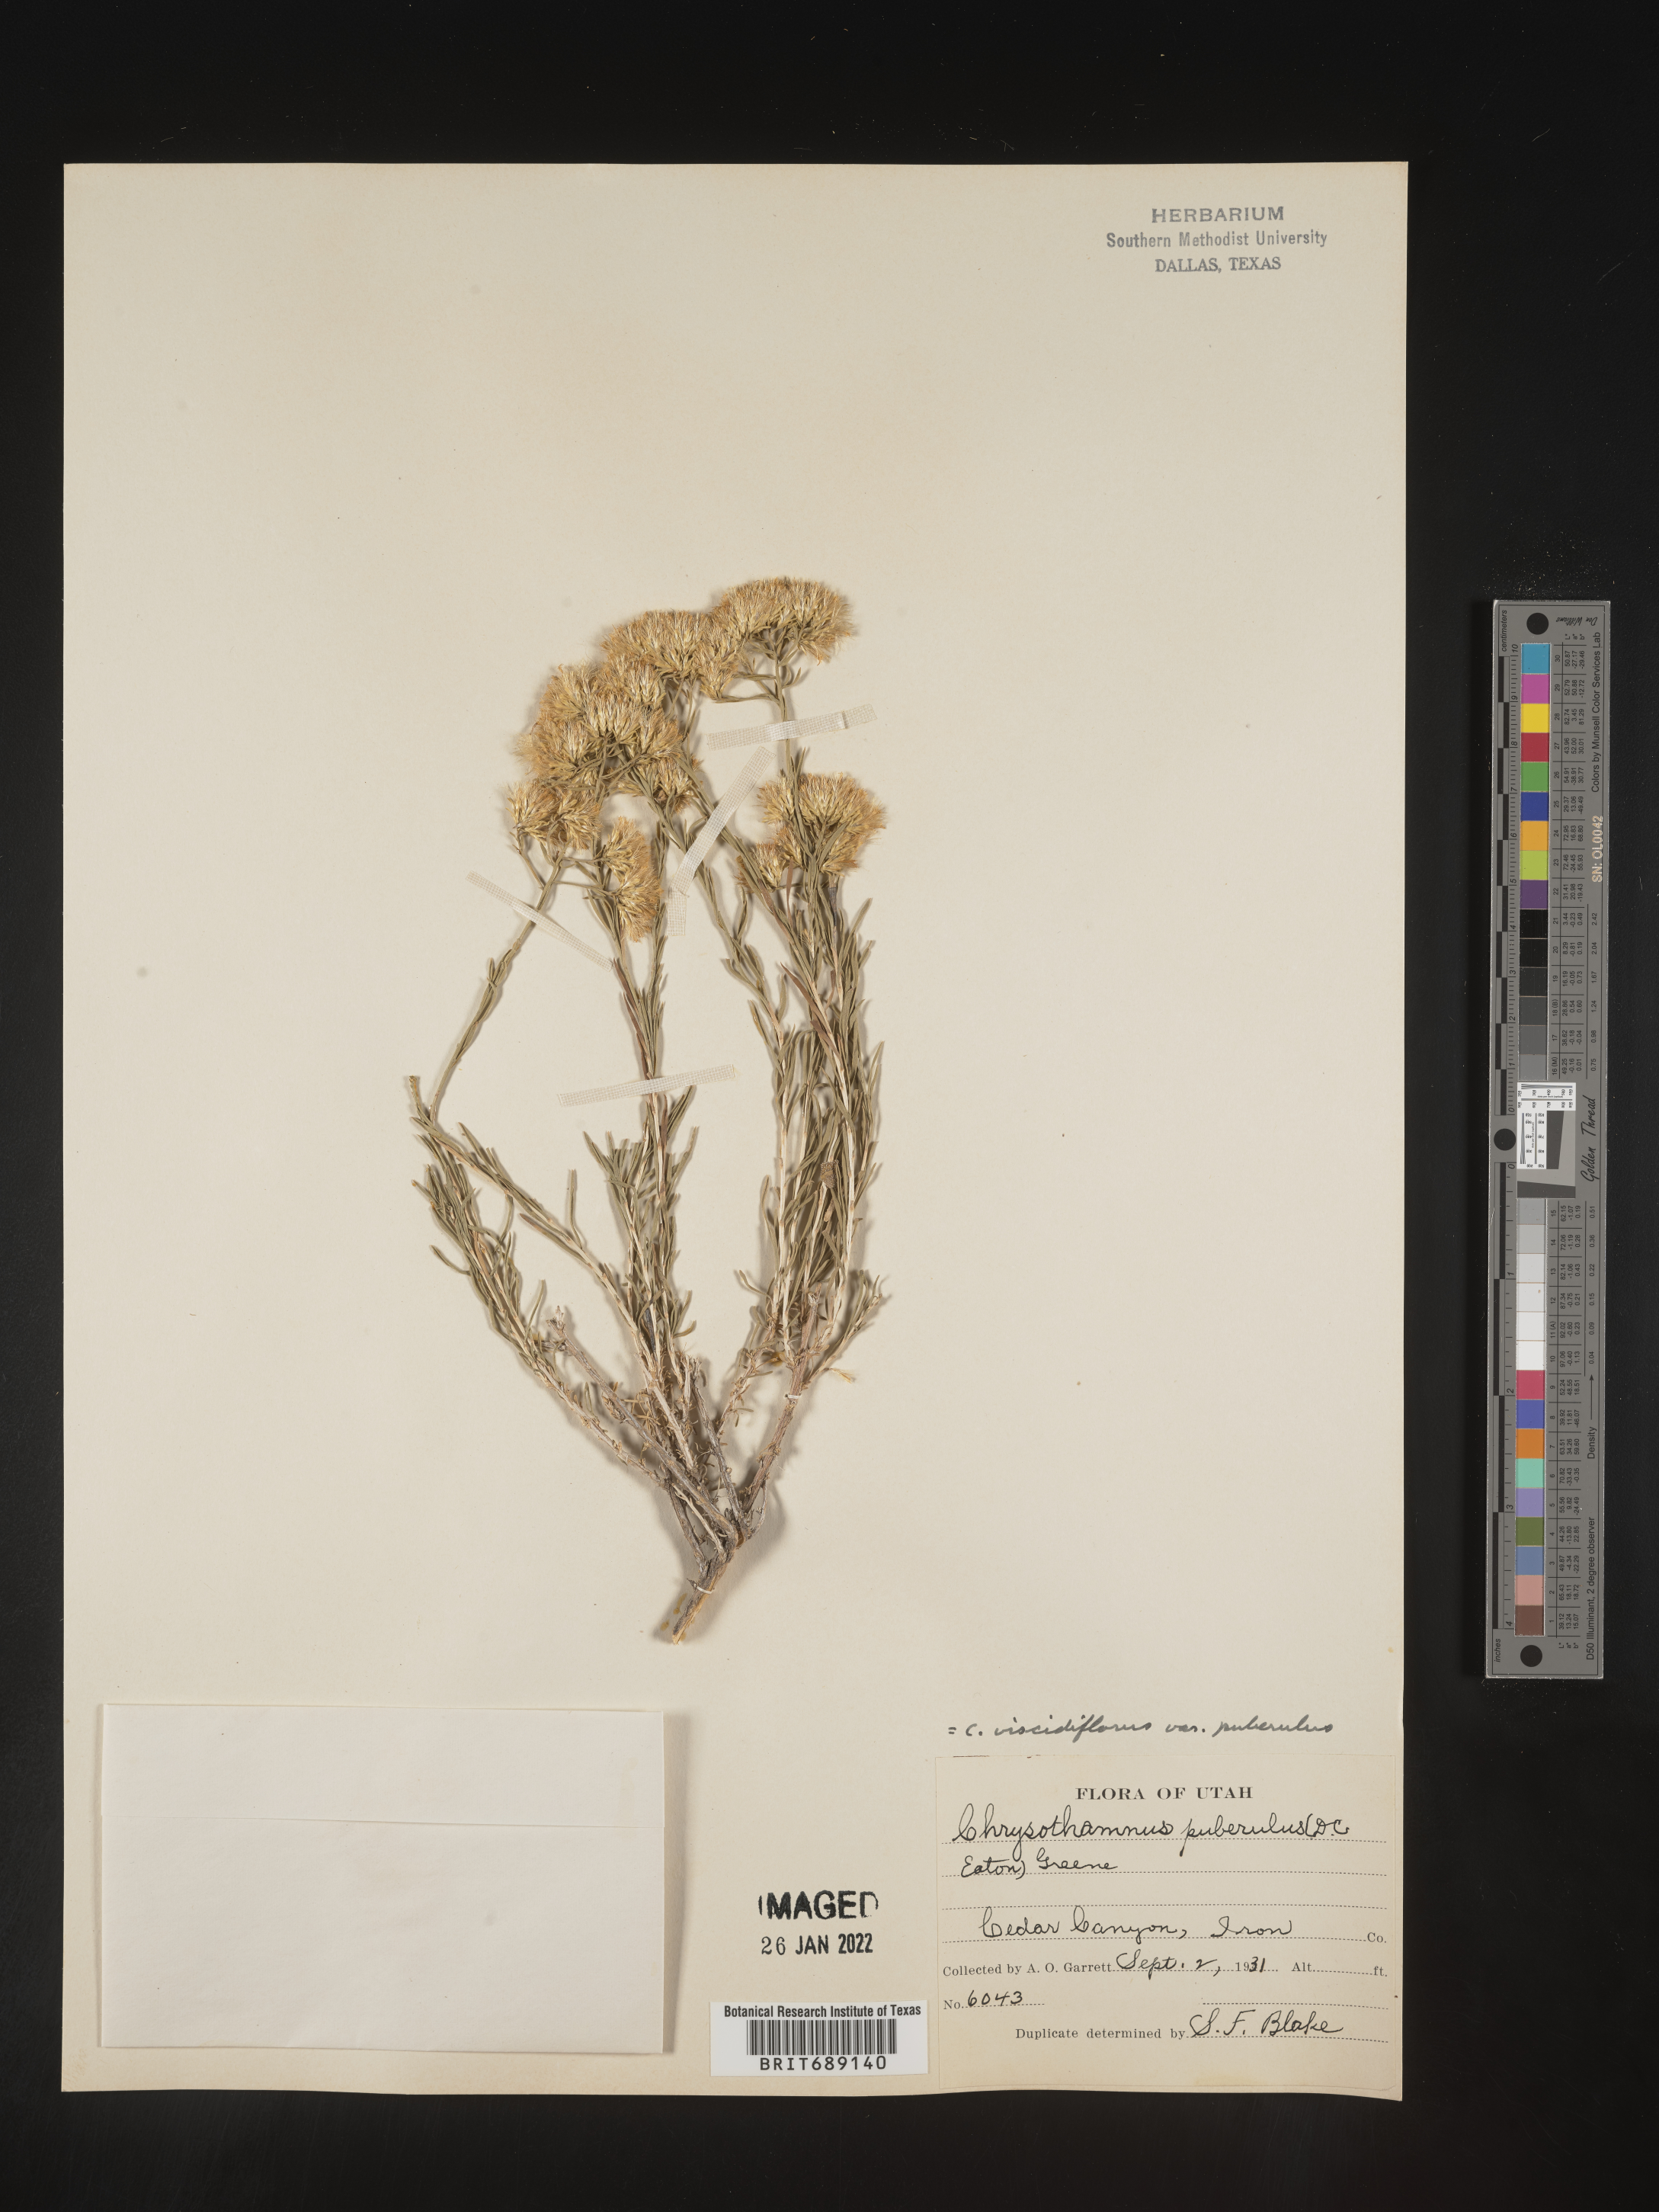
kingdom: Plantae
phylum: Tracheophyta
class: Magnoliopsida
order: Asterales
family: Asteraceae
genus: Chrysothamnus
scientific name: Chrysothamnus viscidiflorus
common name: Yellow rabbitbrush
